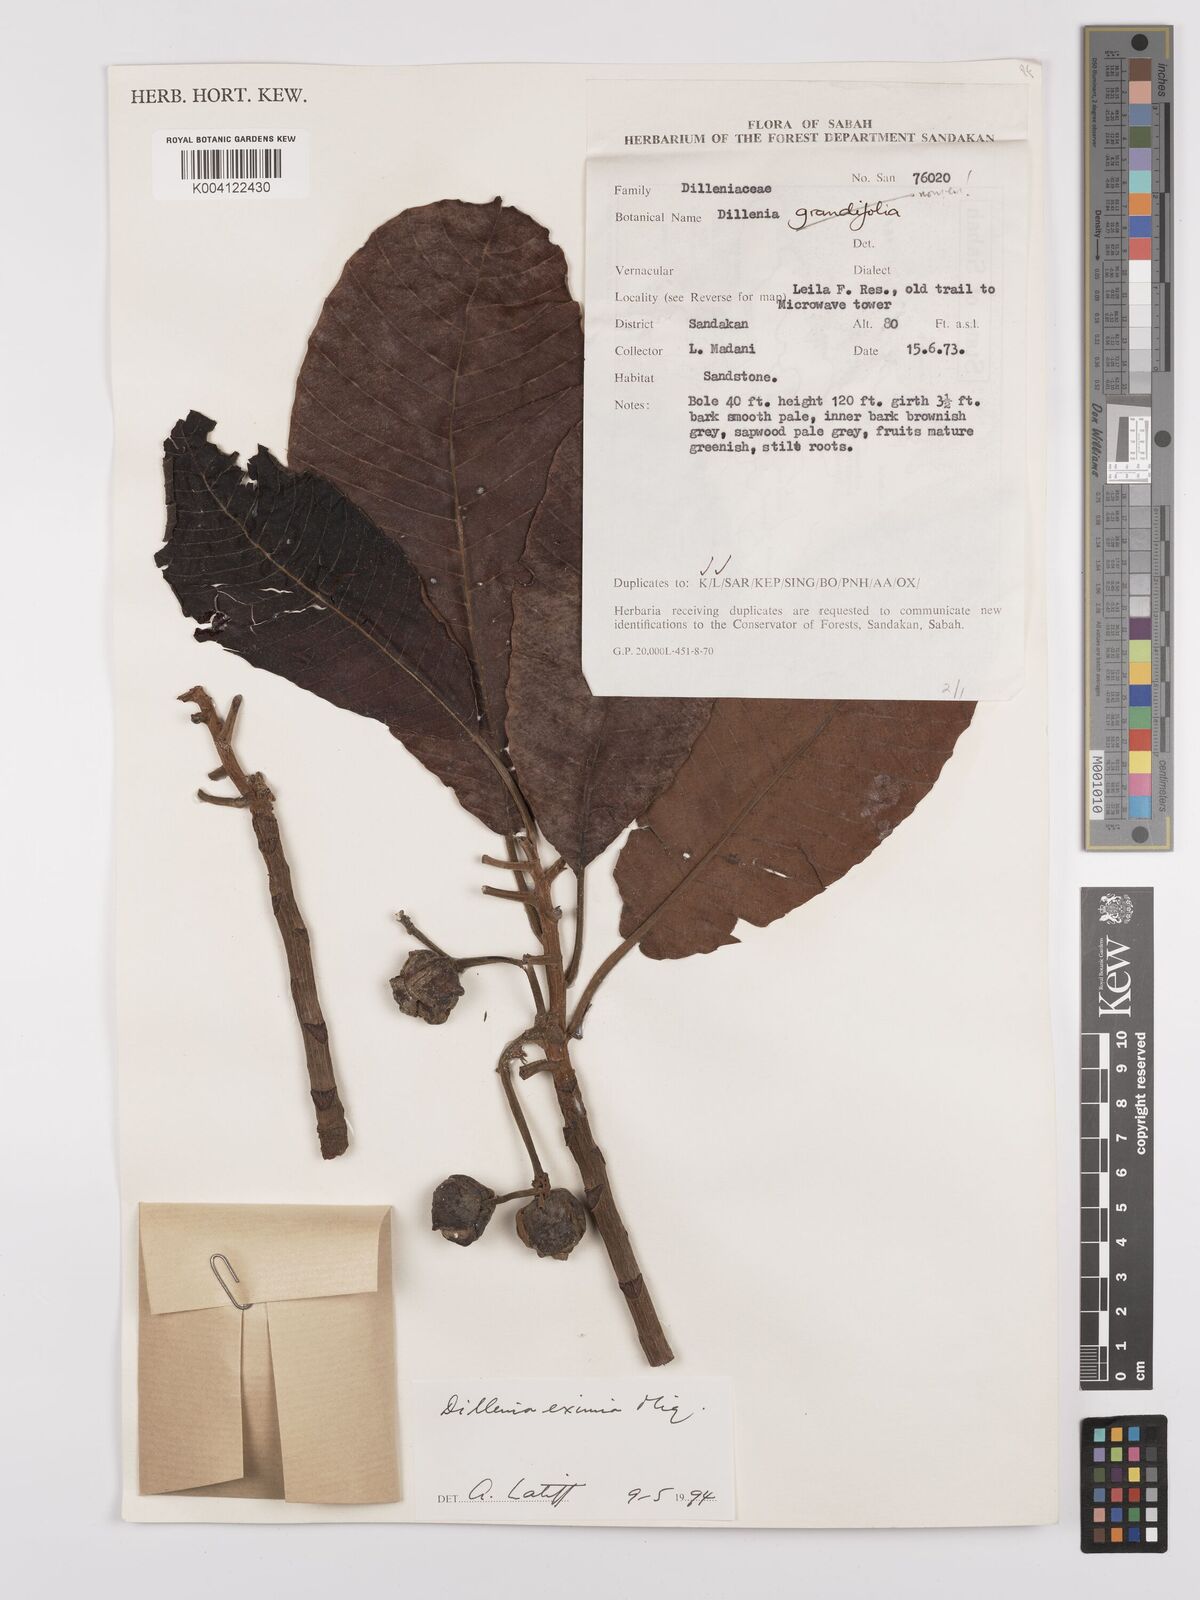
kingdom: Plantae
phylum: Tracheophyta
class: Magnoliopsida
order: Dilleniales
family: Dilleniaceae
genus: Dillenia
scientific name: Dillenia grandifolia
